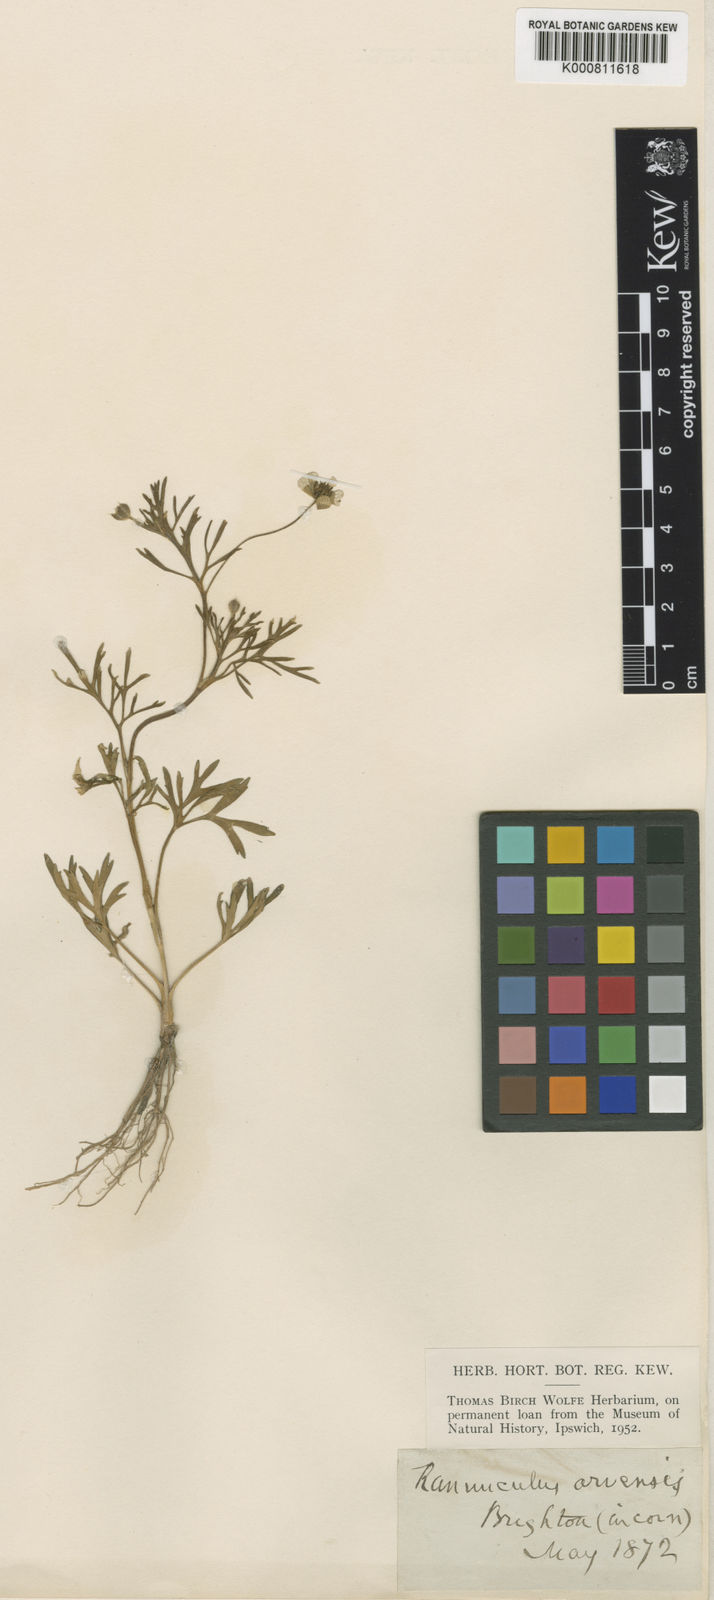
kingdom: Plantae
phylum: Tracheophyta
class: Magnoliopsida
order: Ranunculales
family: Ranunculaceae
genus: Ranunculus
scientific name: Ranunculus arvensis
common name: Corn buttercup
